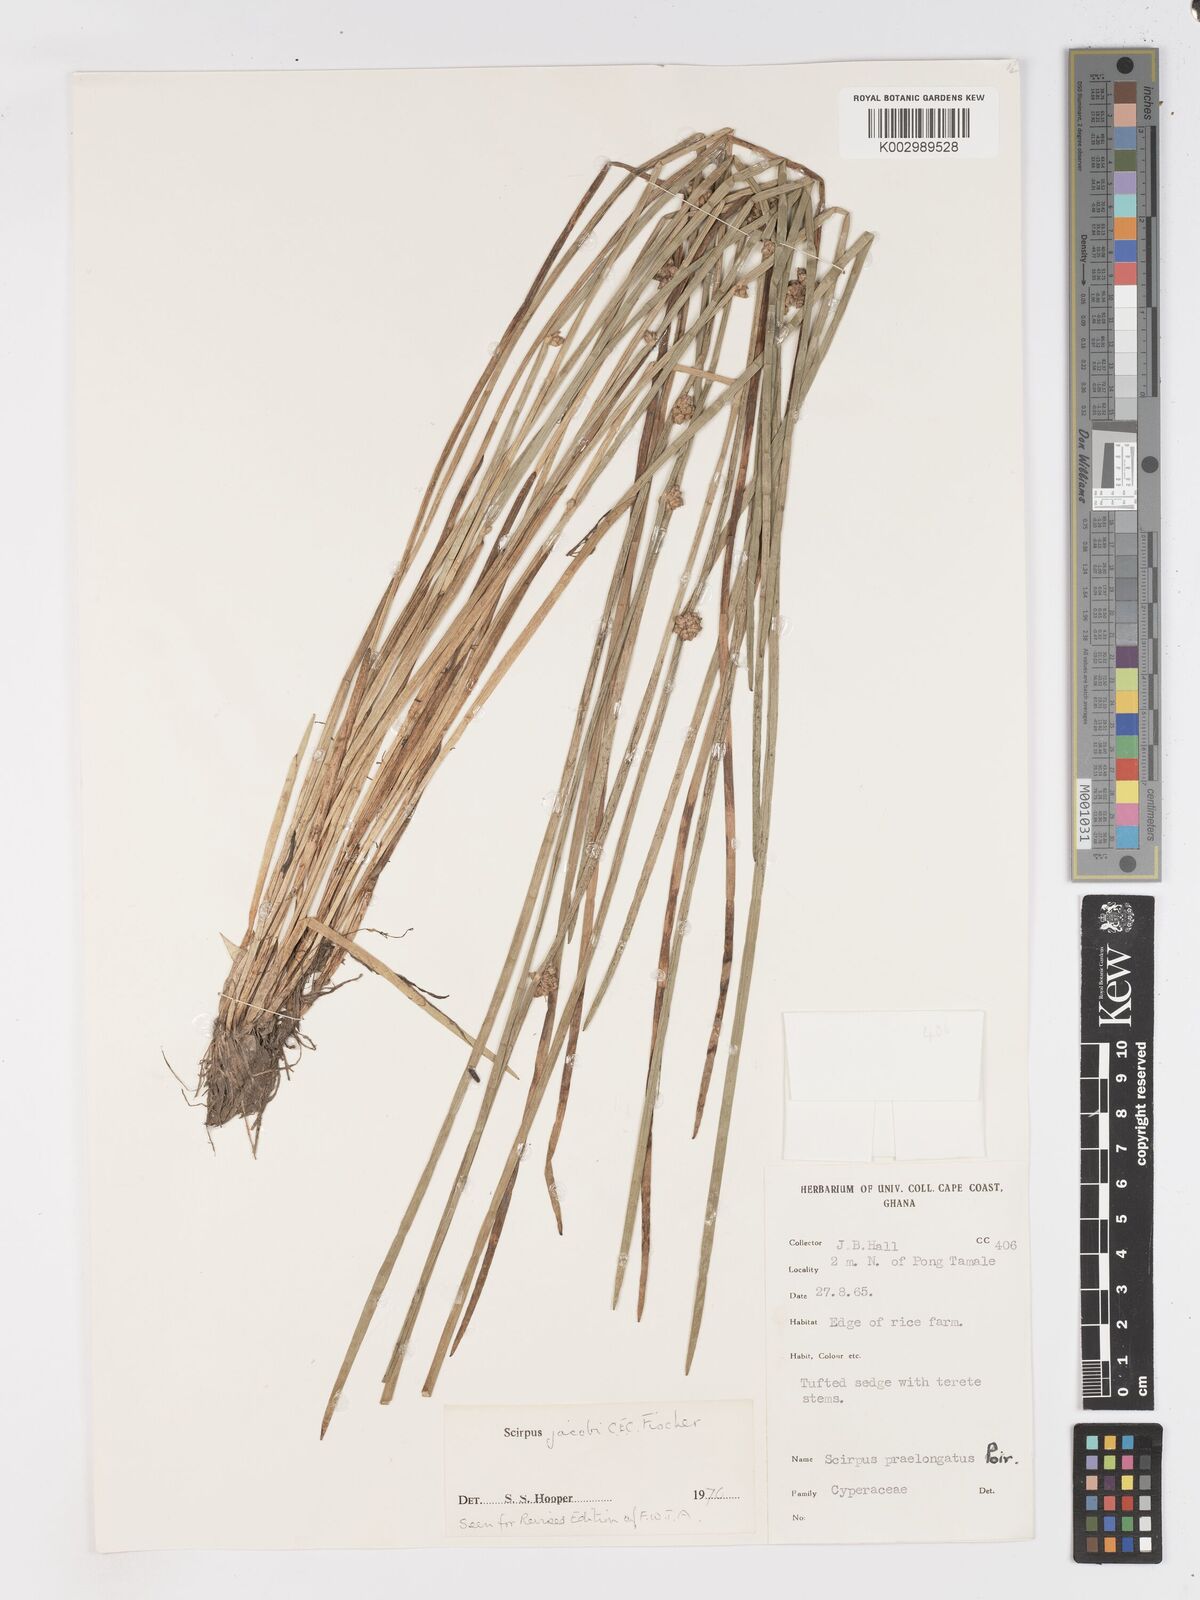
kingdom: Plantae
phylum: Tracheophyta
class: Liliopsida
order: Poales
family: Cyperaceae
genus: Schoenoplectiella
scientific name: Schoenoplectiella senegalensis
